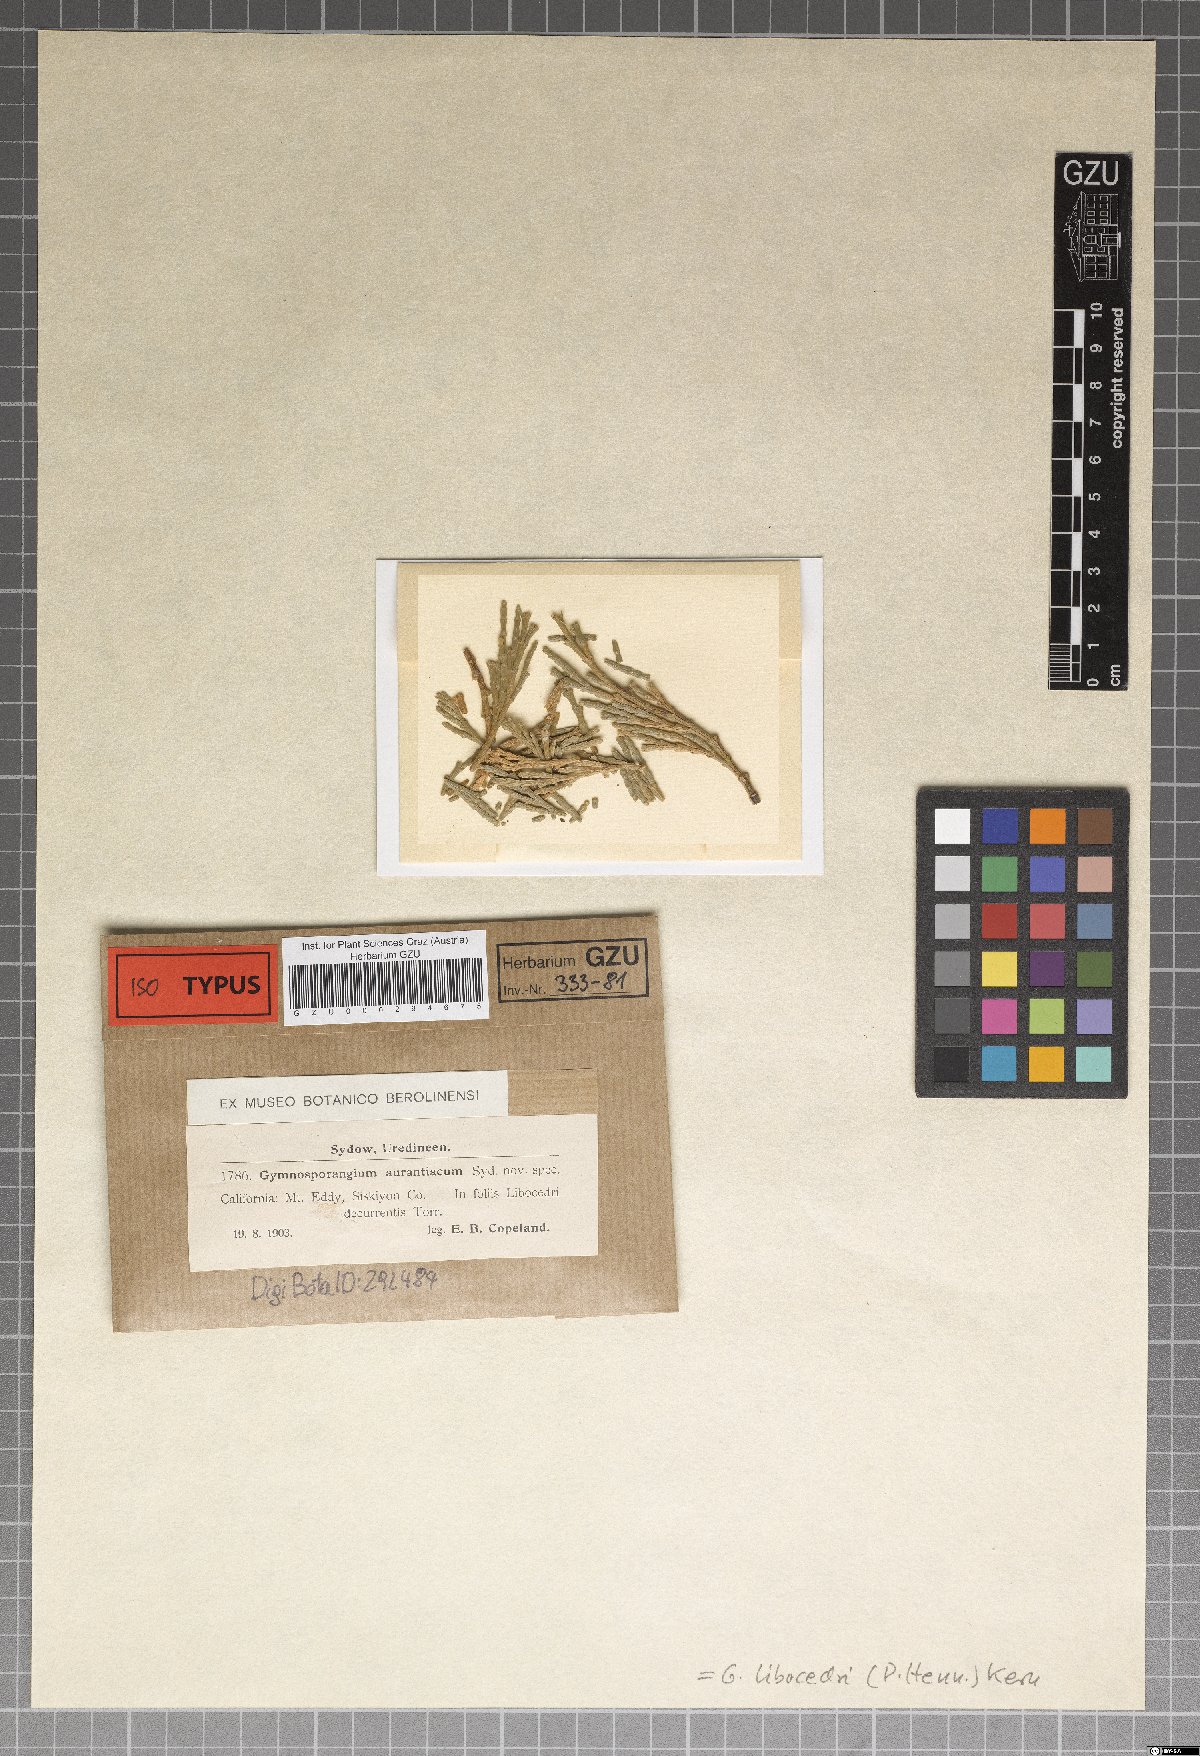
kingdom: Fungi
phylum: Basidiomycota
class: Pucciniomycetes
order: Pucciniales
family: Gymnosporangiaceae
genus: Gymnosporangium
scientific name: Gymnosporangium aurantiacum
